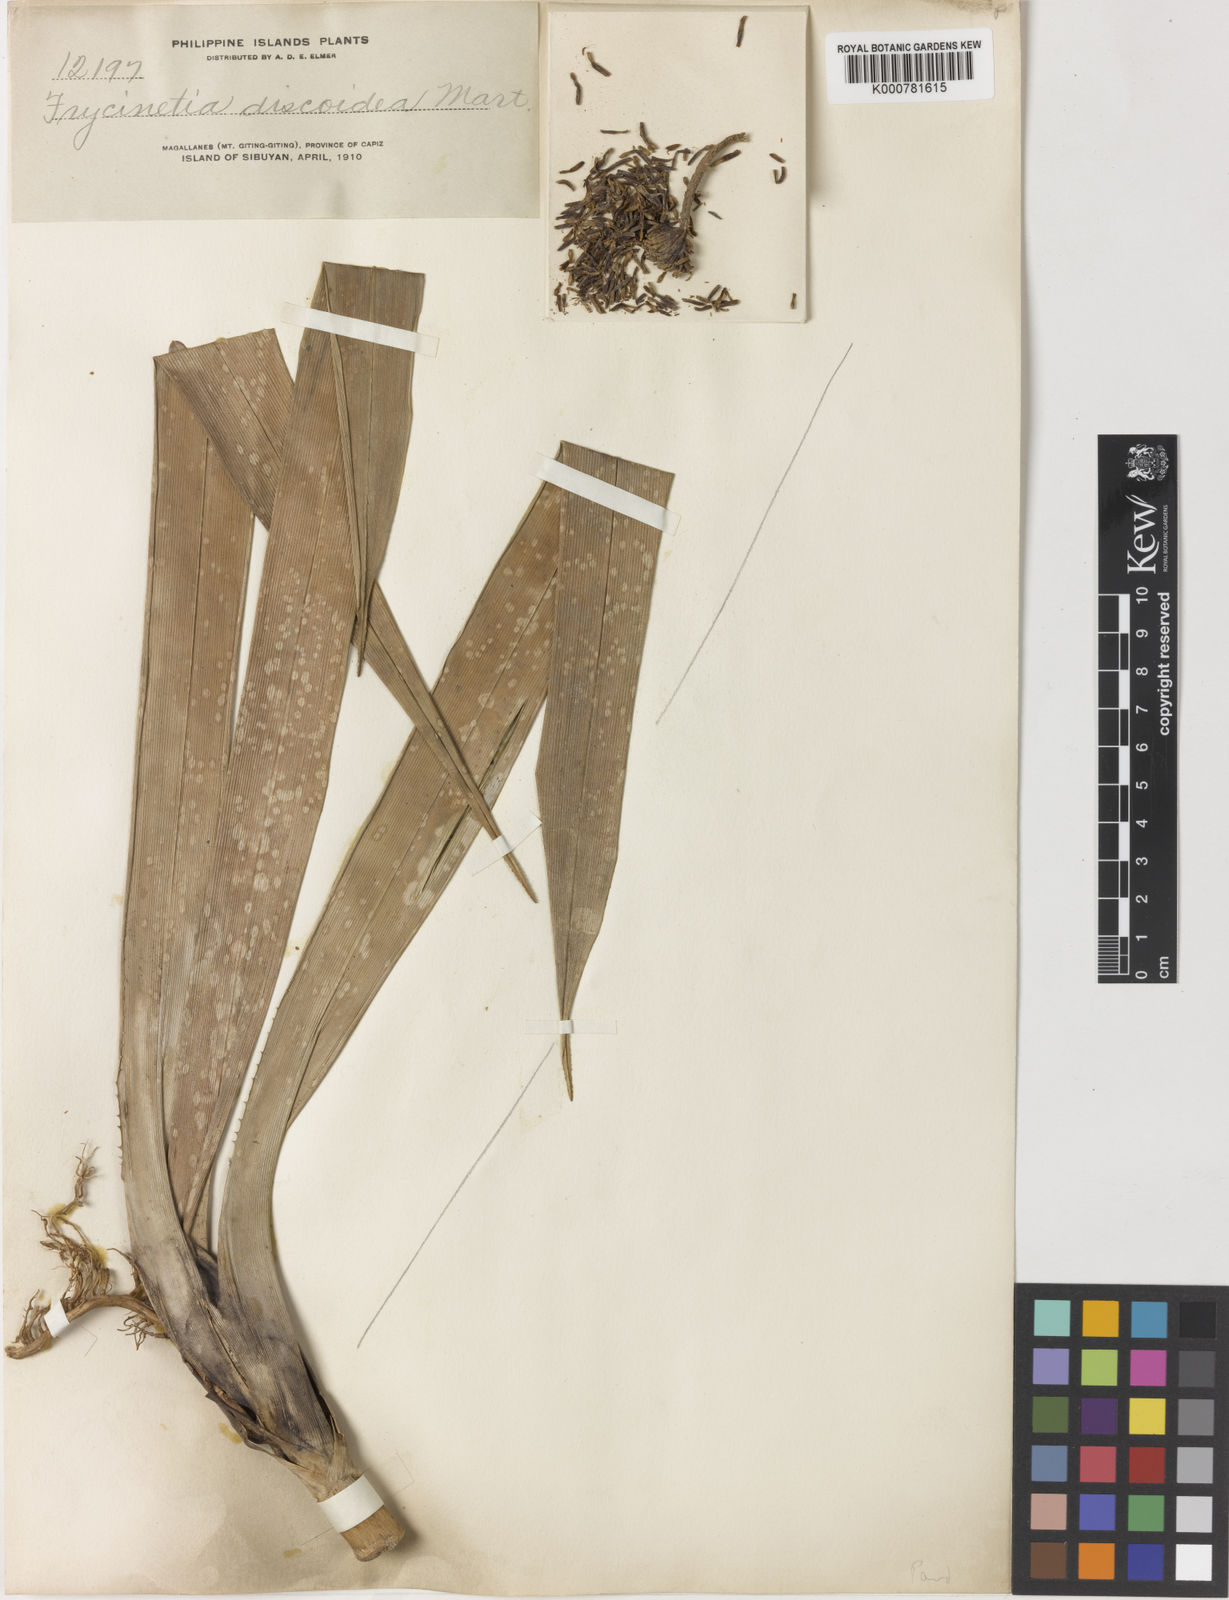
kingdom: Plantae
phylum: Tracheophyta
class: Liliopsida
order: Pandanales
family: Pandanaceae
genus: Freycinetia
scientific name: Freycinetia discoidea
